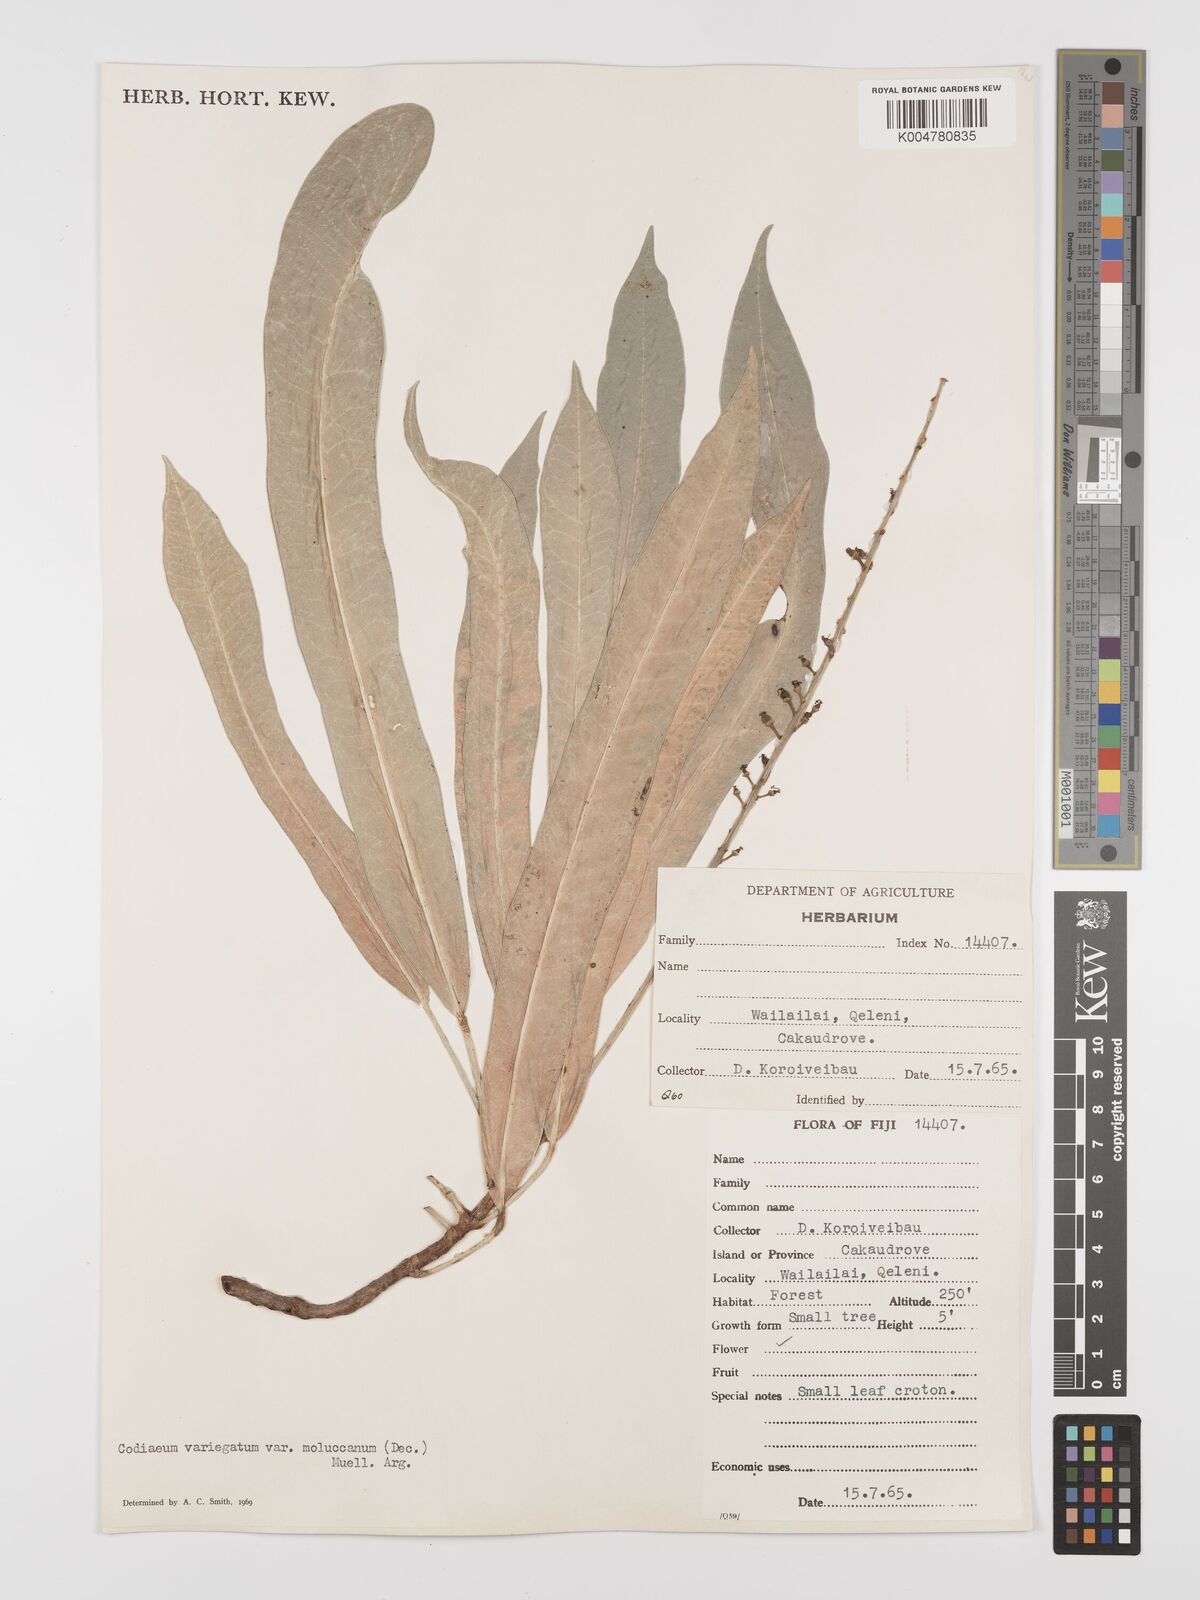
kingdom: Plantae
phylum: Tracheophyta
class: Magnoliopsida
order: Malpighiales
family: Euphorbiaceae
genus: Codiaeum
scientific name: Codiaeum variegatum
